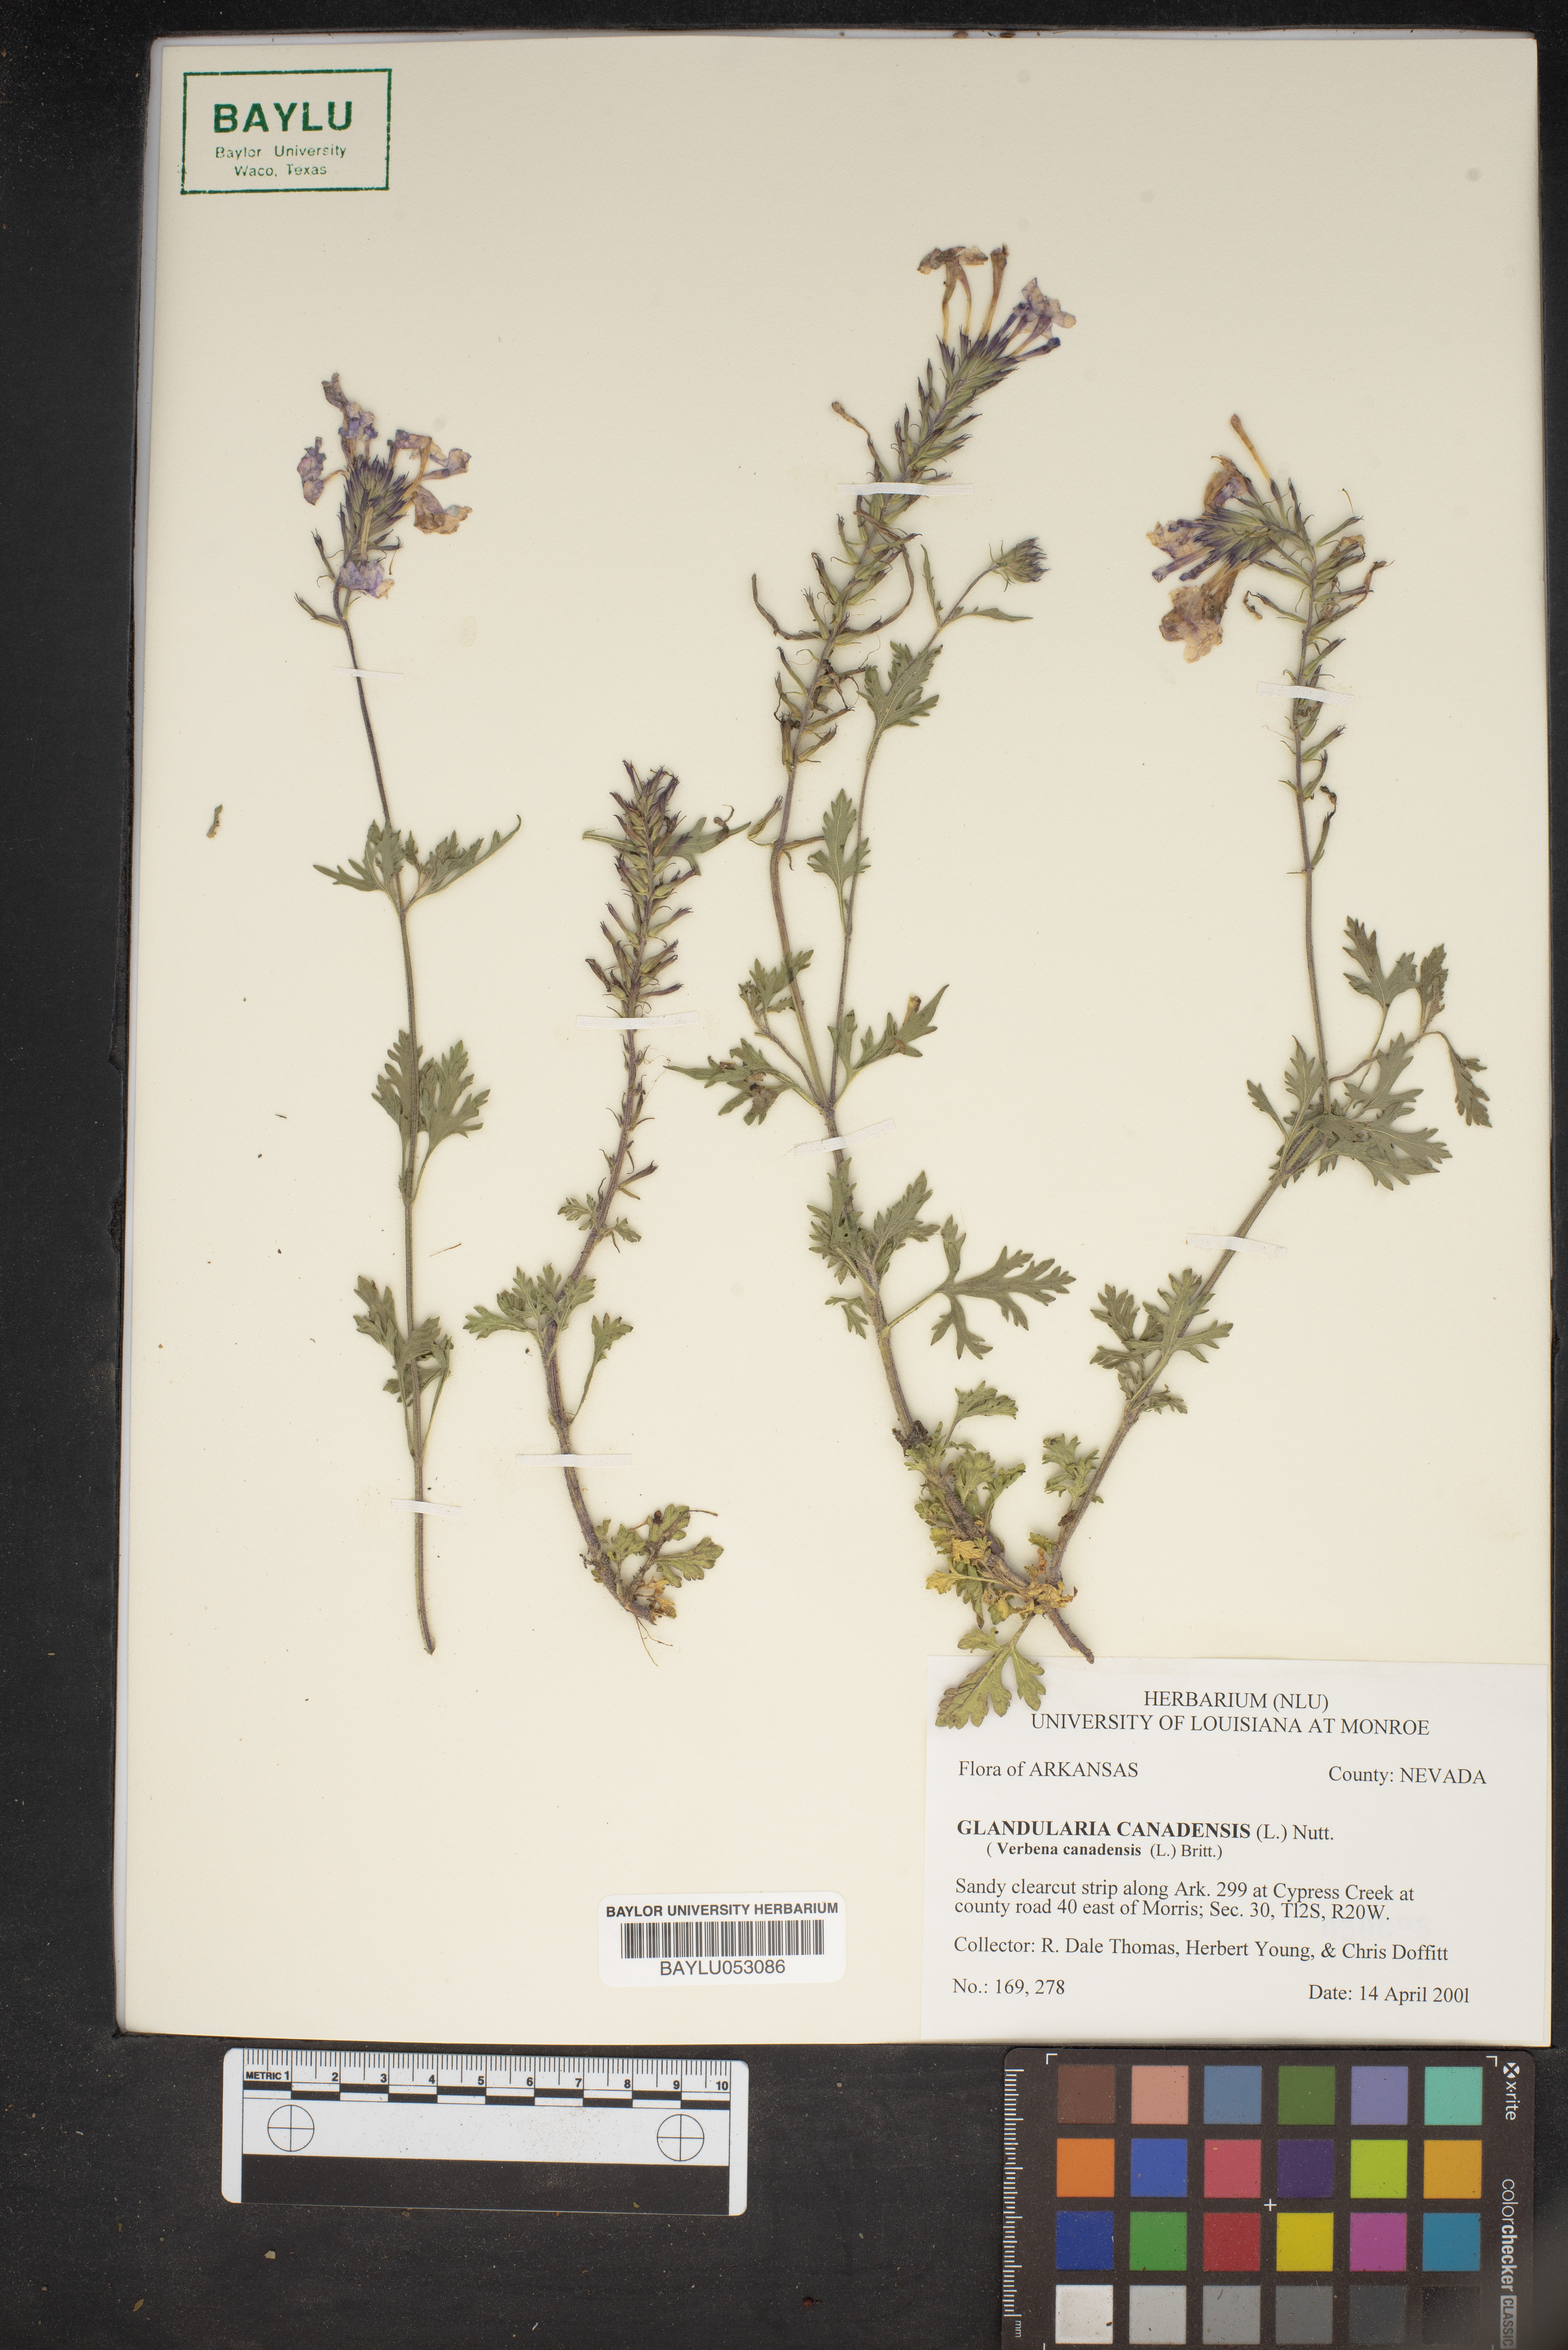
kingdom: Plantae
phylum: Tracheophyta
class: Magnoliopsida
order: Lamiales
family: Verbenaceae
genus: Verbena
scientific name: Verbena canadensis
